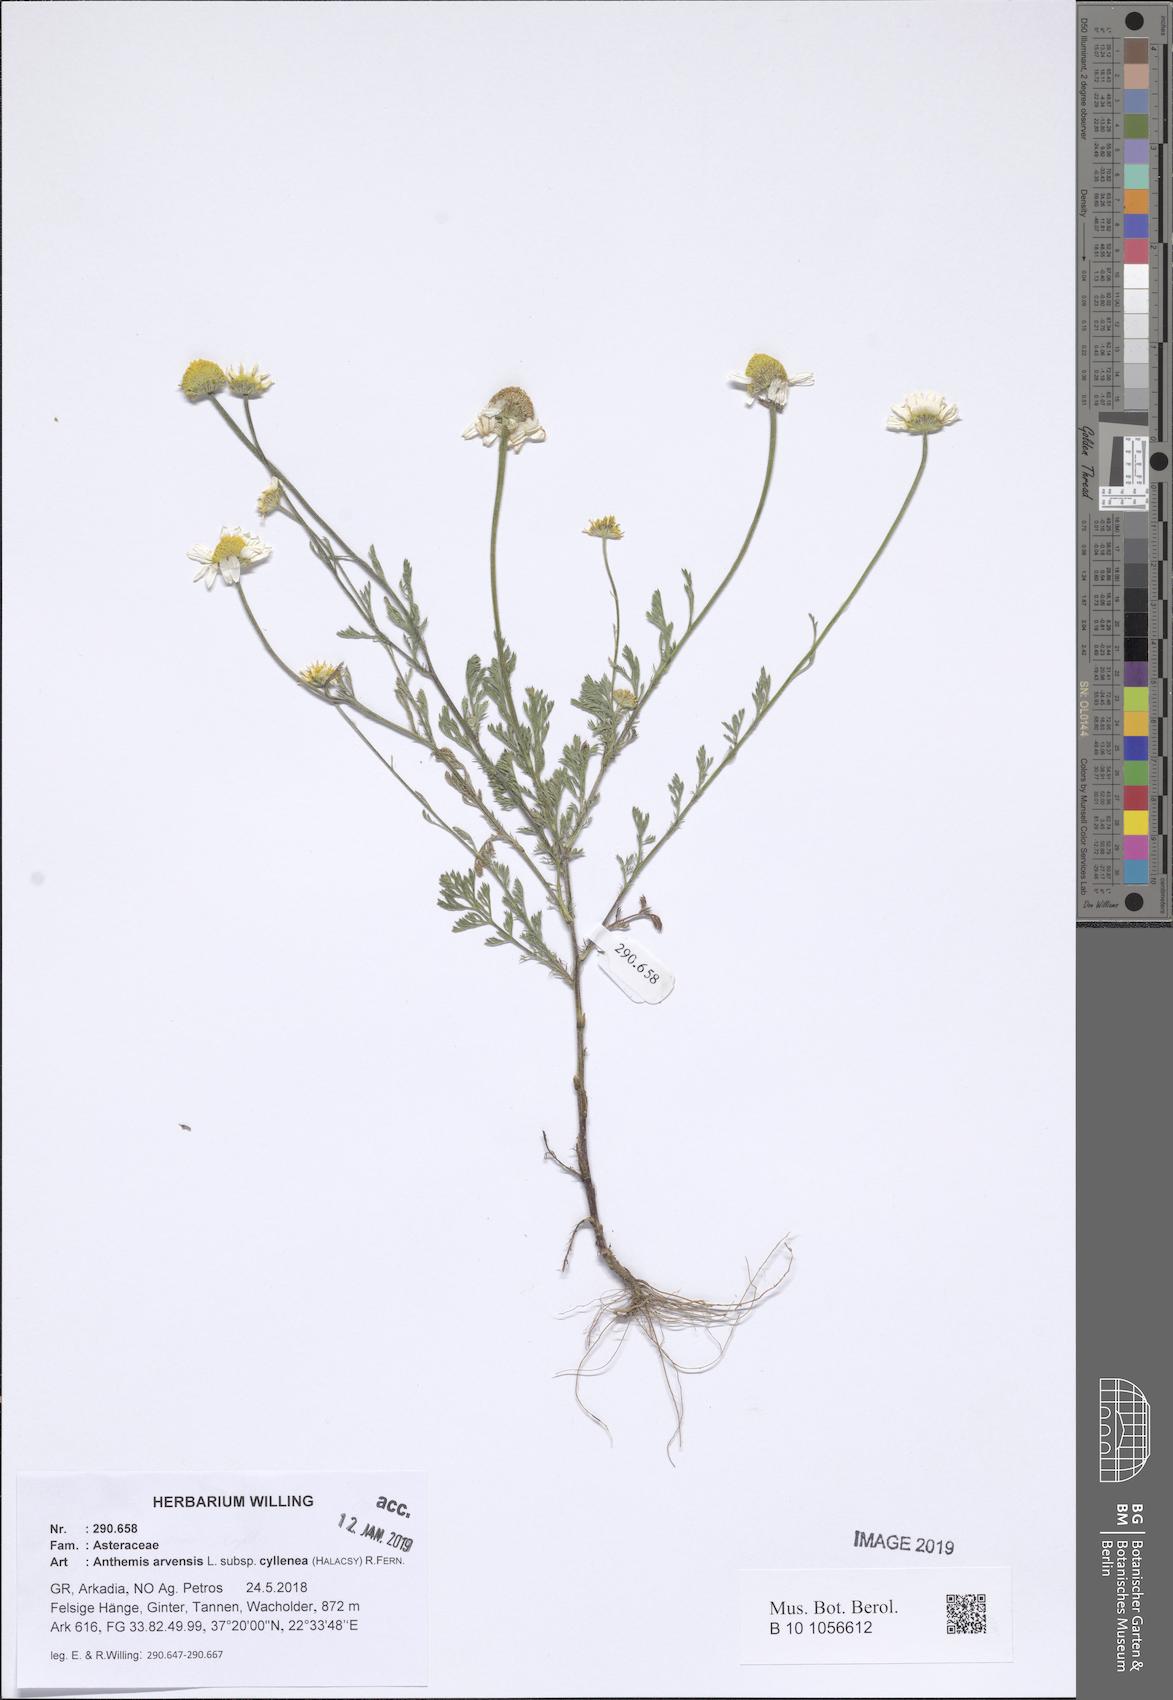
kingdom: Plantae
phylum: Tracheophyta
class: Magnoliopsida
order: Asterales
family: Asteraceae
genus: Anthemis
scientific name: Anthemis arvensis
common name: Corn chamomile
